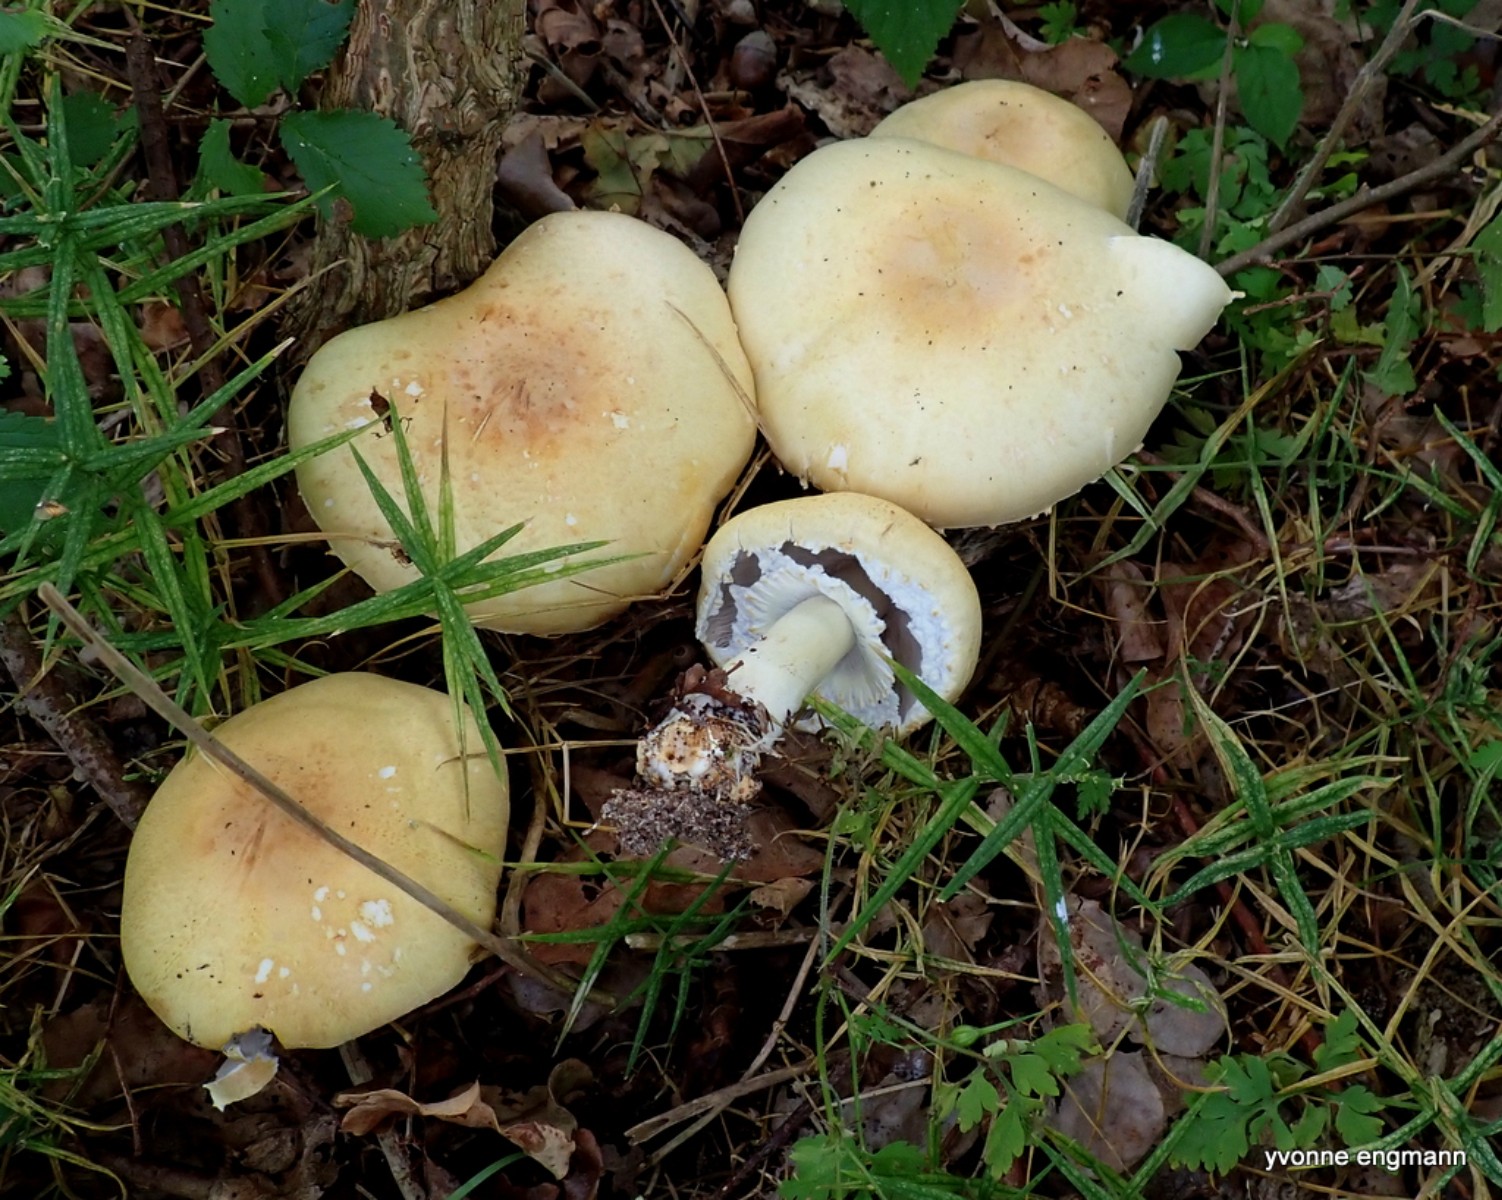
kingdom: Fungi
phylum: Basidiomycota
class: Agaricomycetes
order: Agaricales
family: Agaricaceae
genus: Agaricus
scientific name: Agaricus
